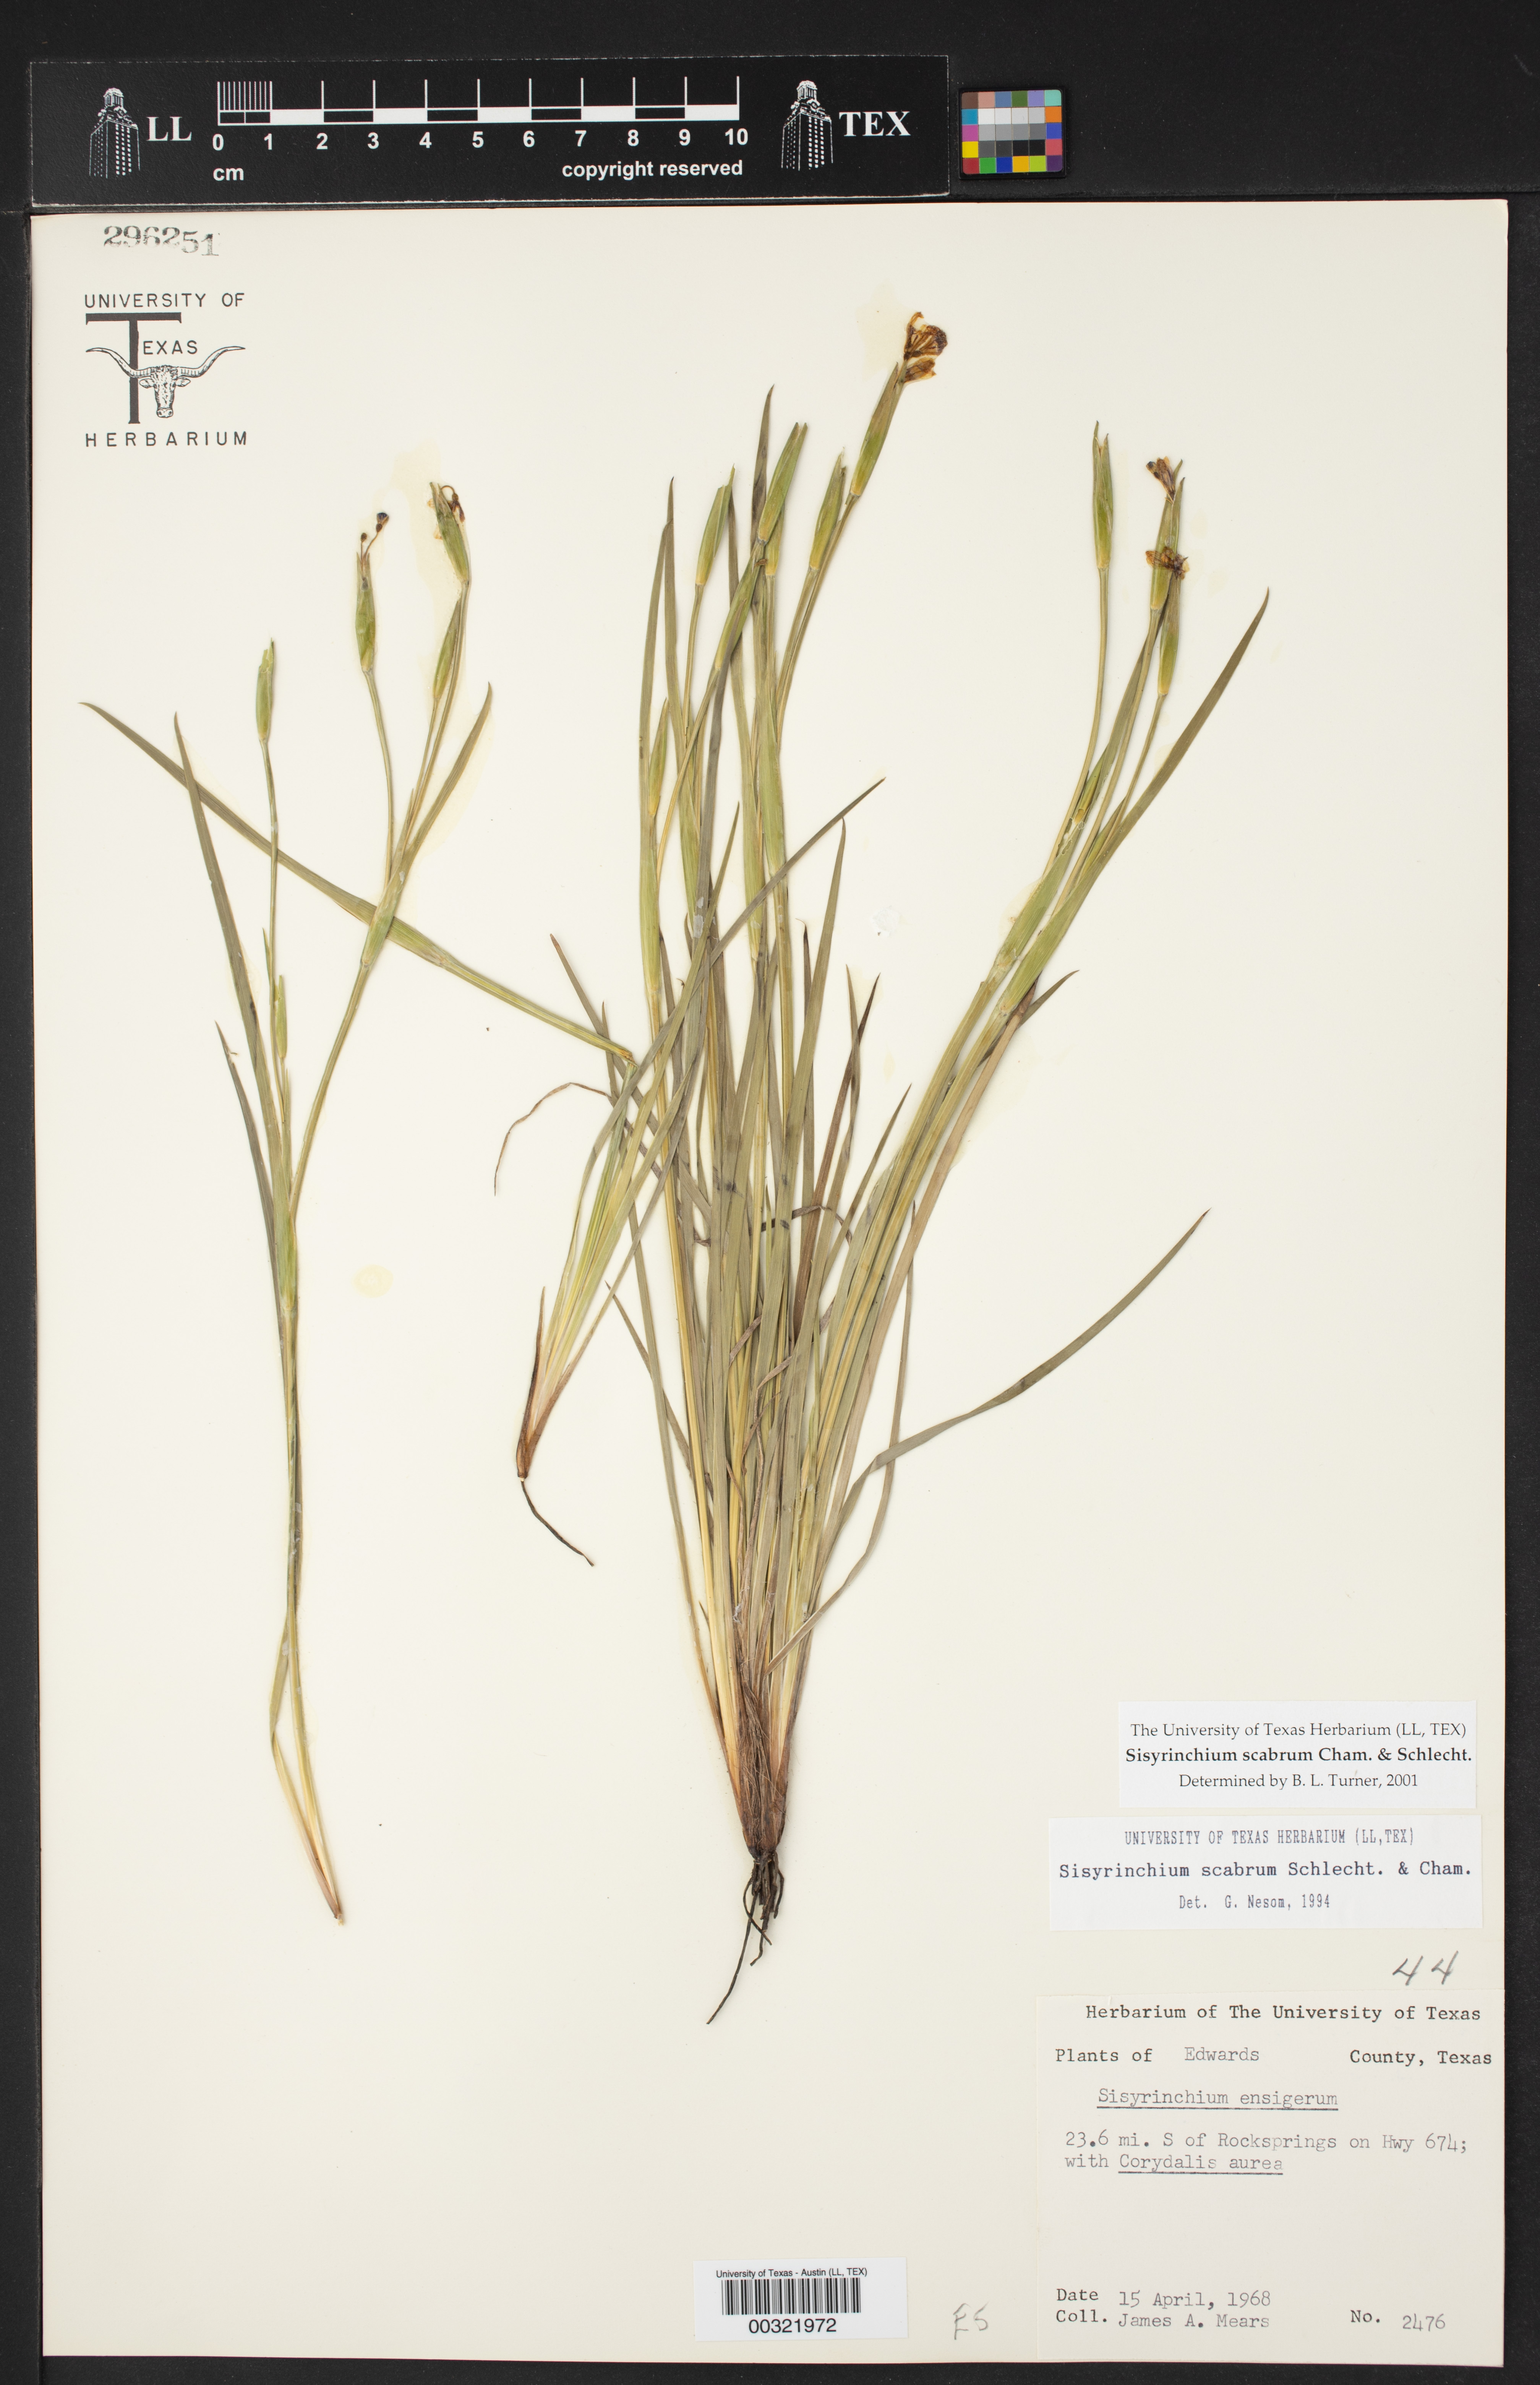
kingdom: Plantae
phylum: Tracheophyta
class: Liliopsida
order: Asparagales
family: Iridaceae
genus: Sisyrinchium
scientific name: Sisyrinchium scabrum
